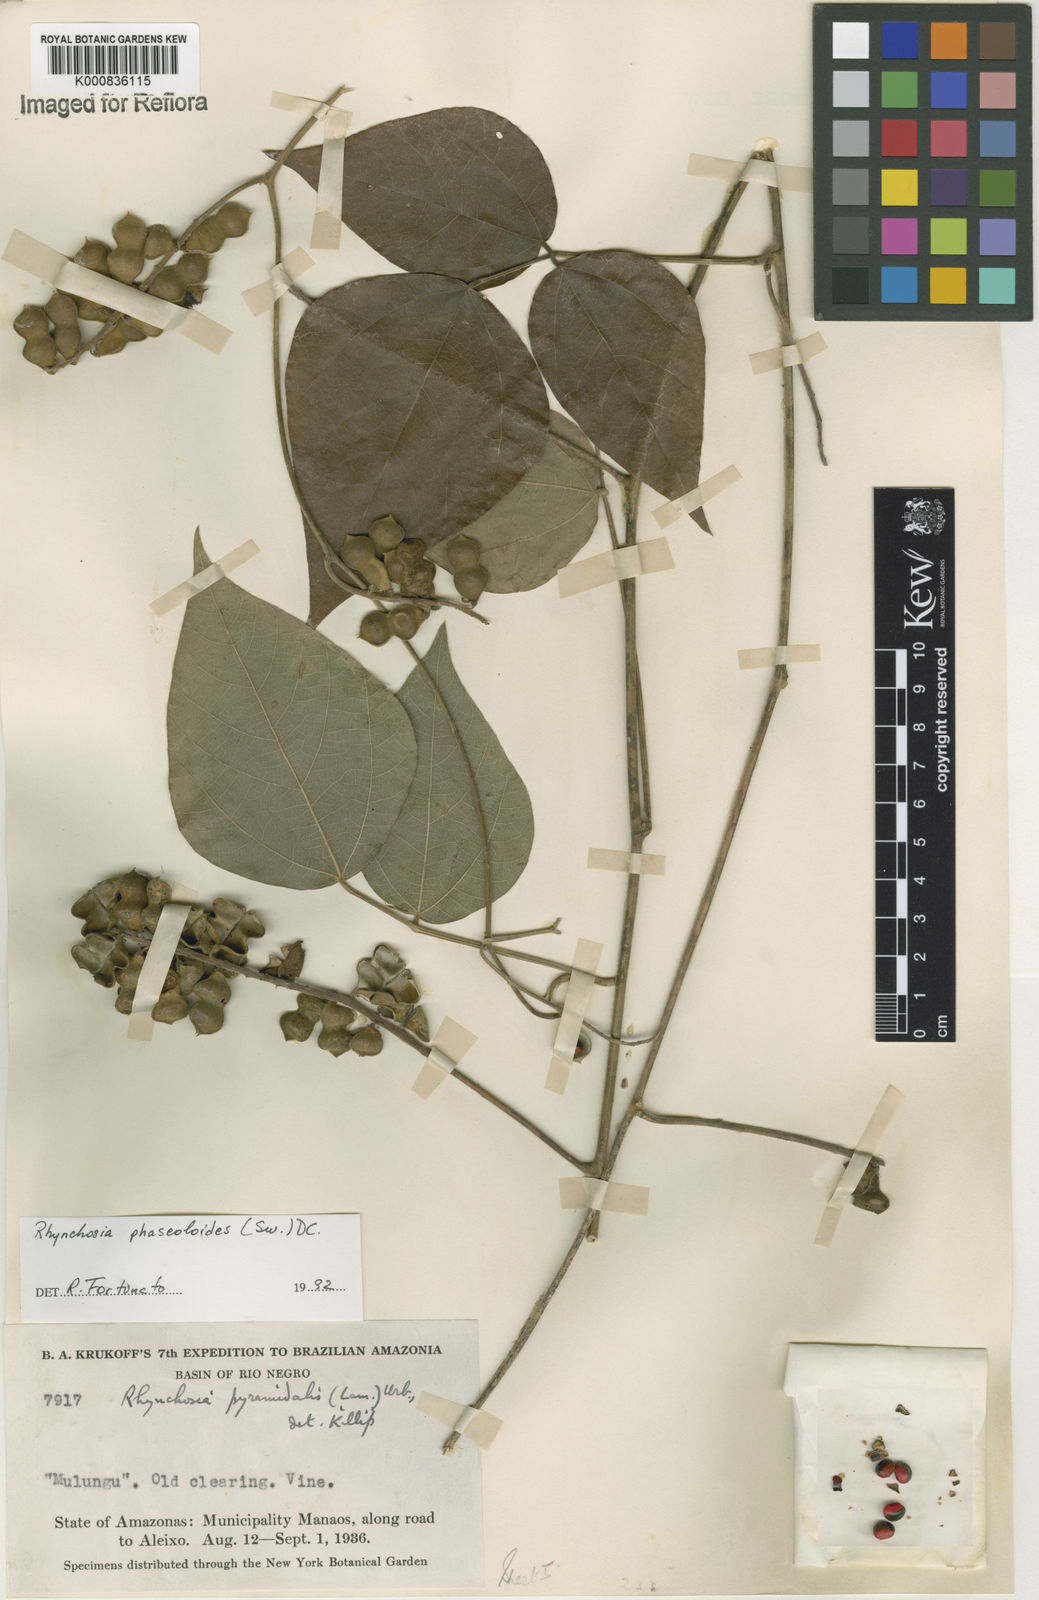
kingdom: Plantae
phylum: Tracheophyta
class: Magnoliopsida
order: Fabales
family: Fabaceae
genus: Rhynchosia
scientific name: Rhynchosia phaseoloides
